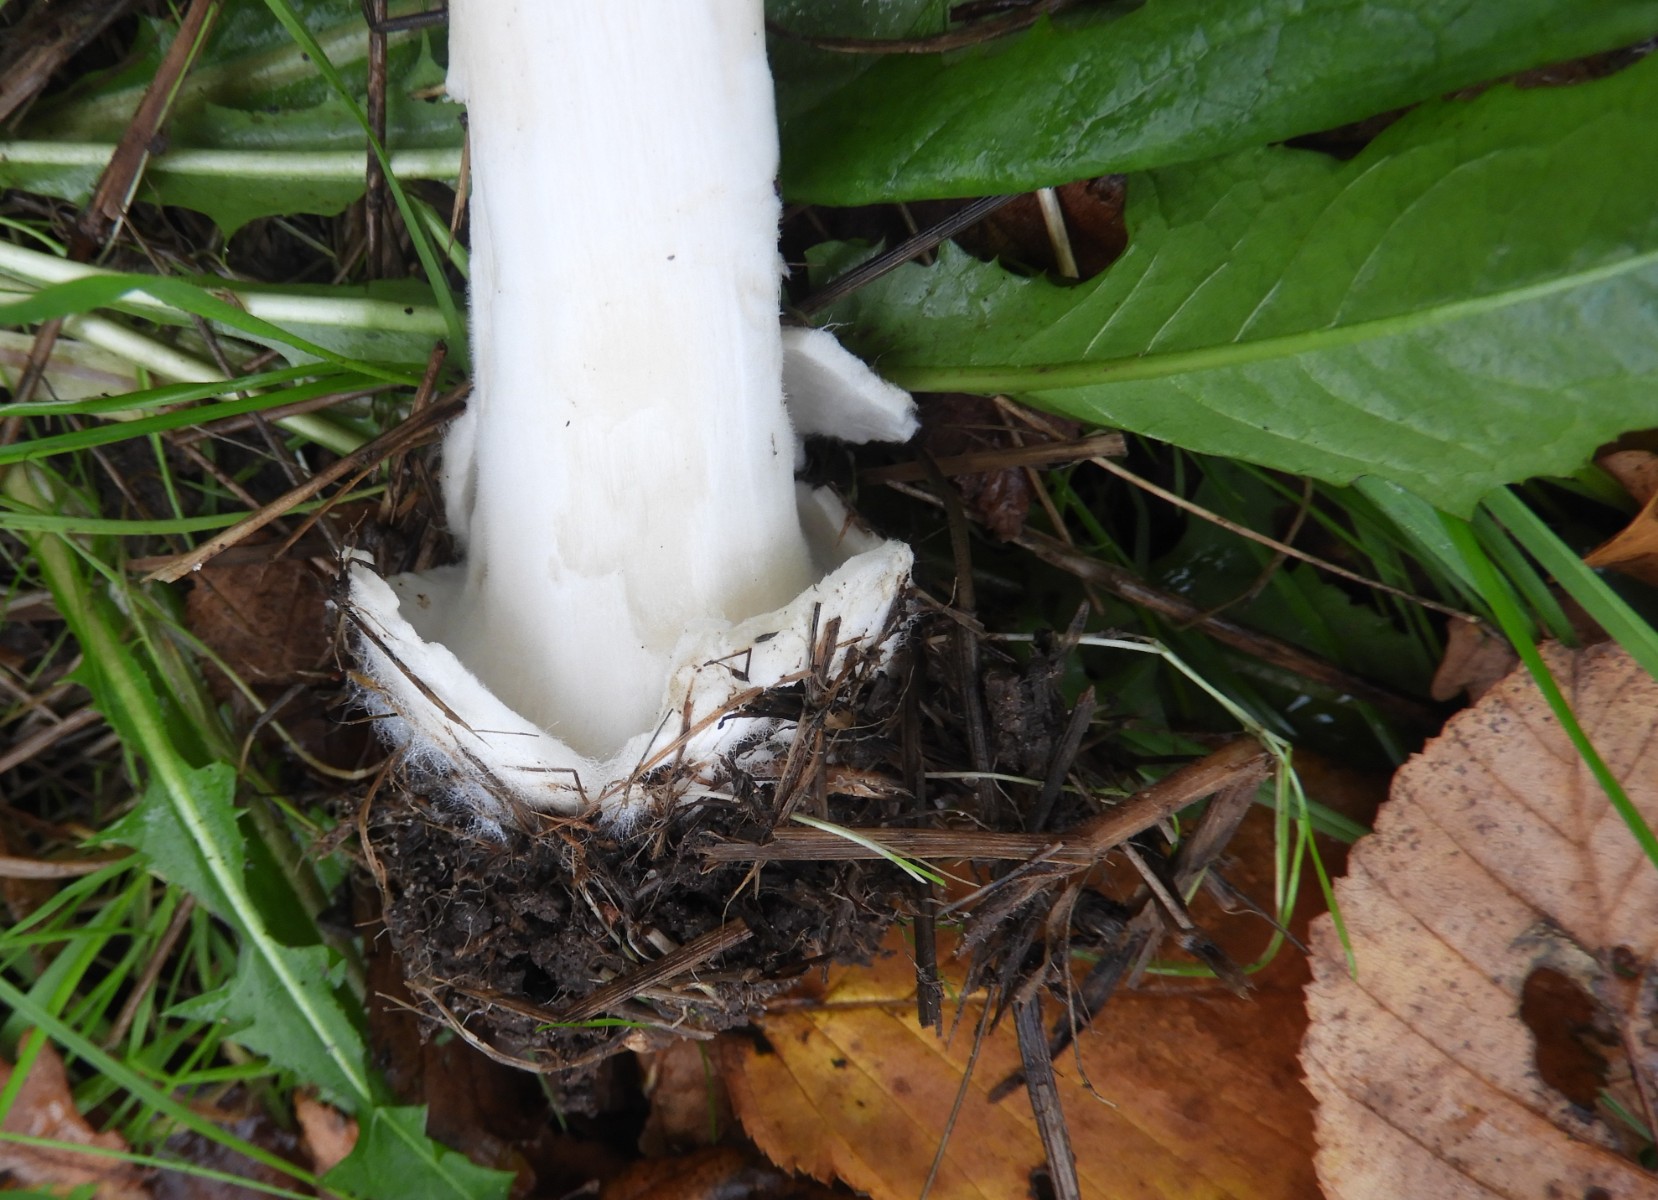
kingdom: Fungi
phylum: Basidiomycota
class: Agaricomycetes
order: Agaricales
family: Pluteaceae
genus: Volvopluteus
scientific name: Volvopluteus gloiocephalus
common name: høj posesvamp
